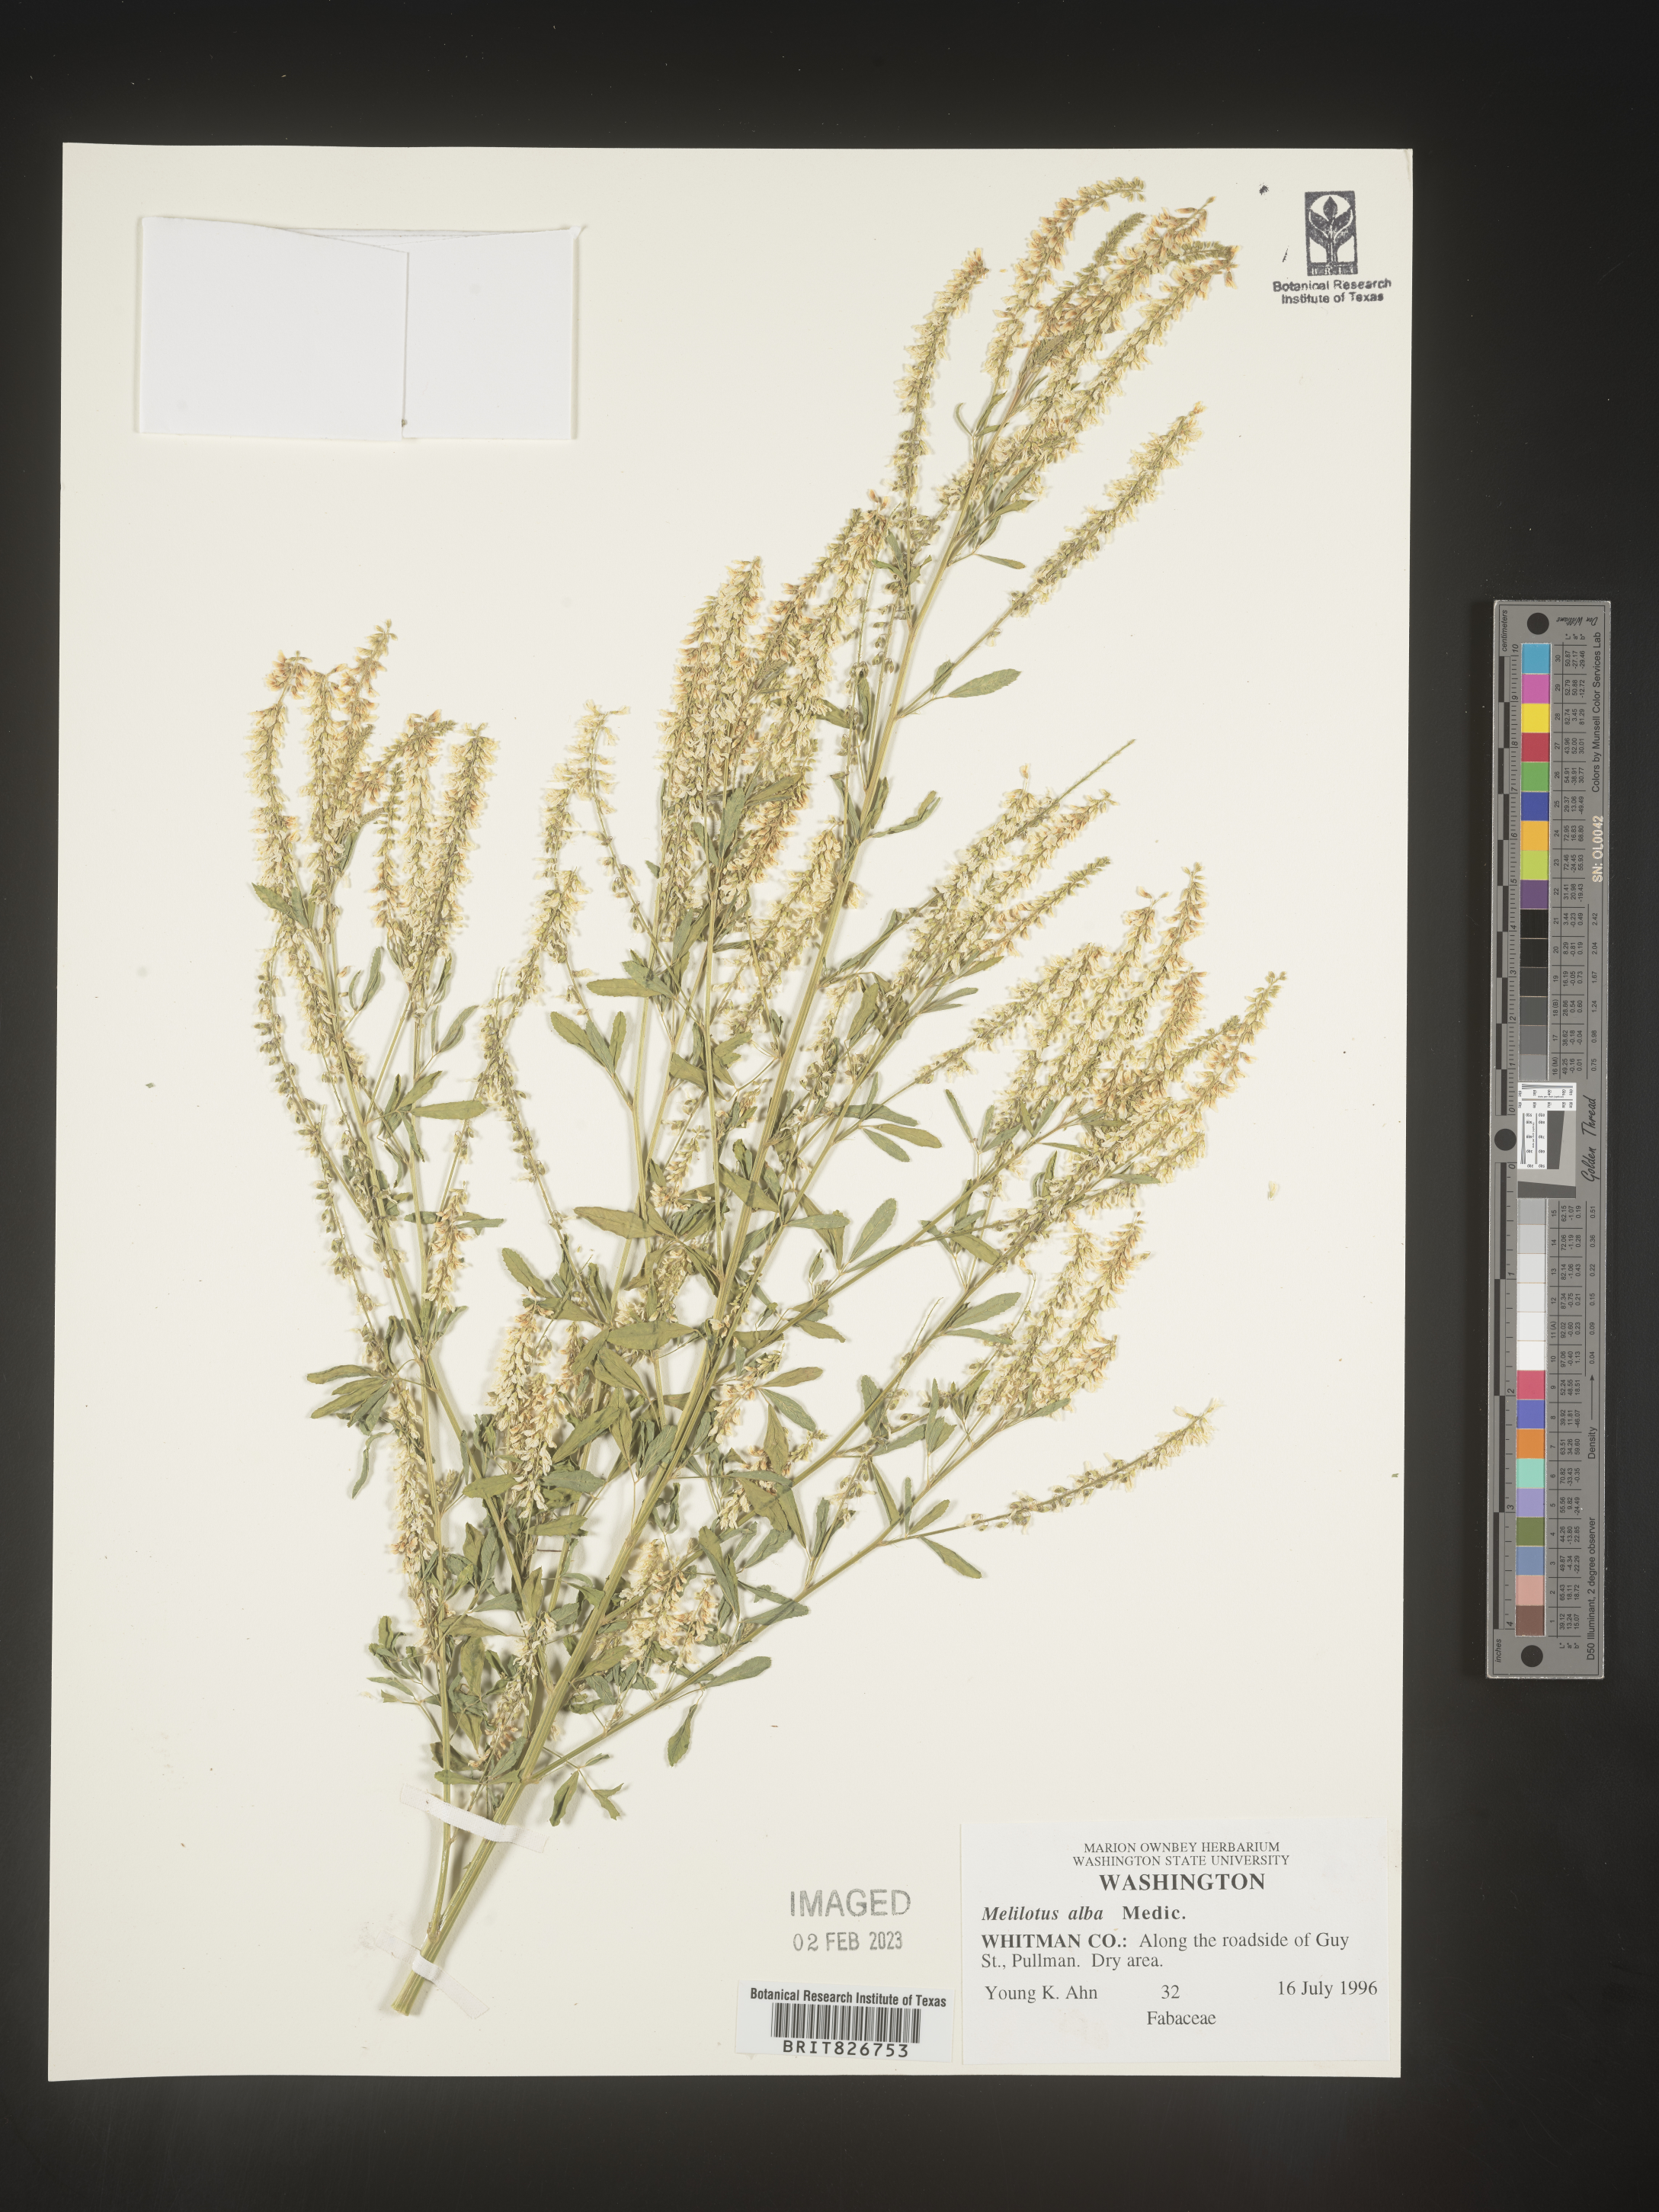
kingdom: Plantae
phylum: Tracheophyta
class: Magnoliopsida
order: Fabales
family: Fabaceae
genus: Melilotus
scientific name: Melilotus albus
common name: White melilot
